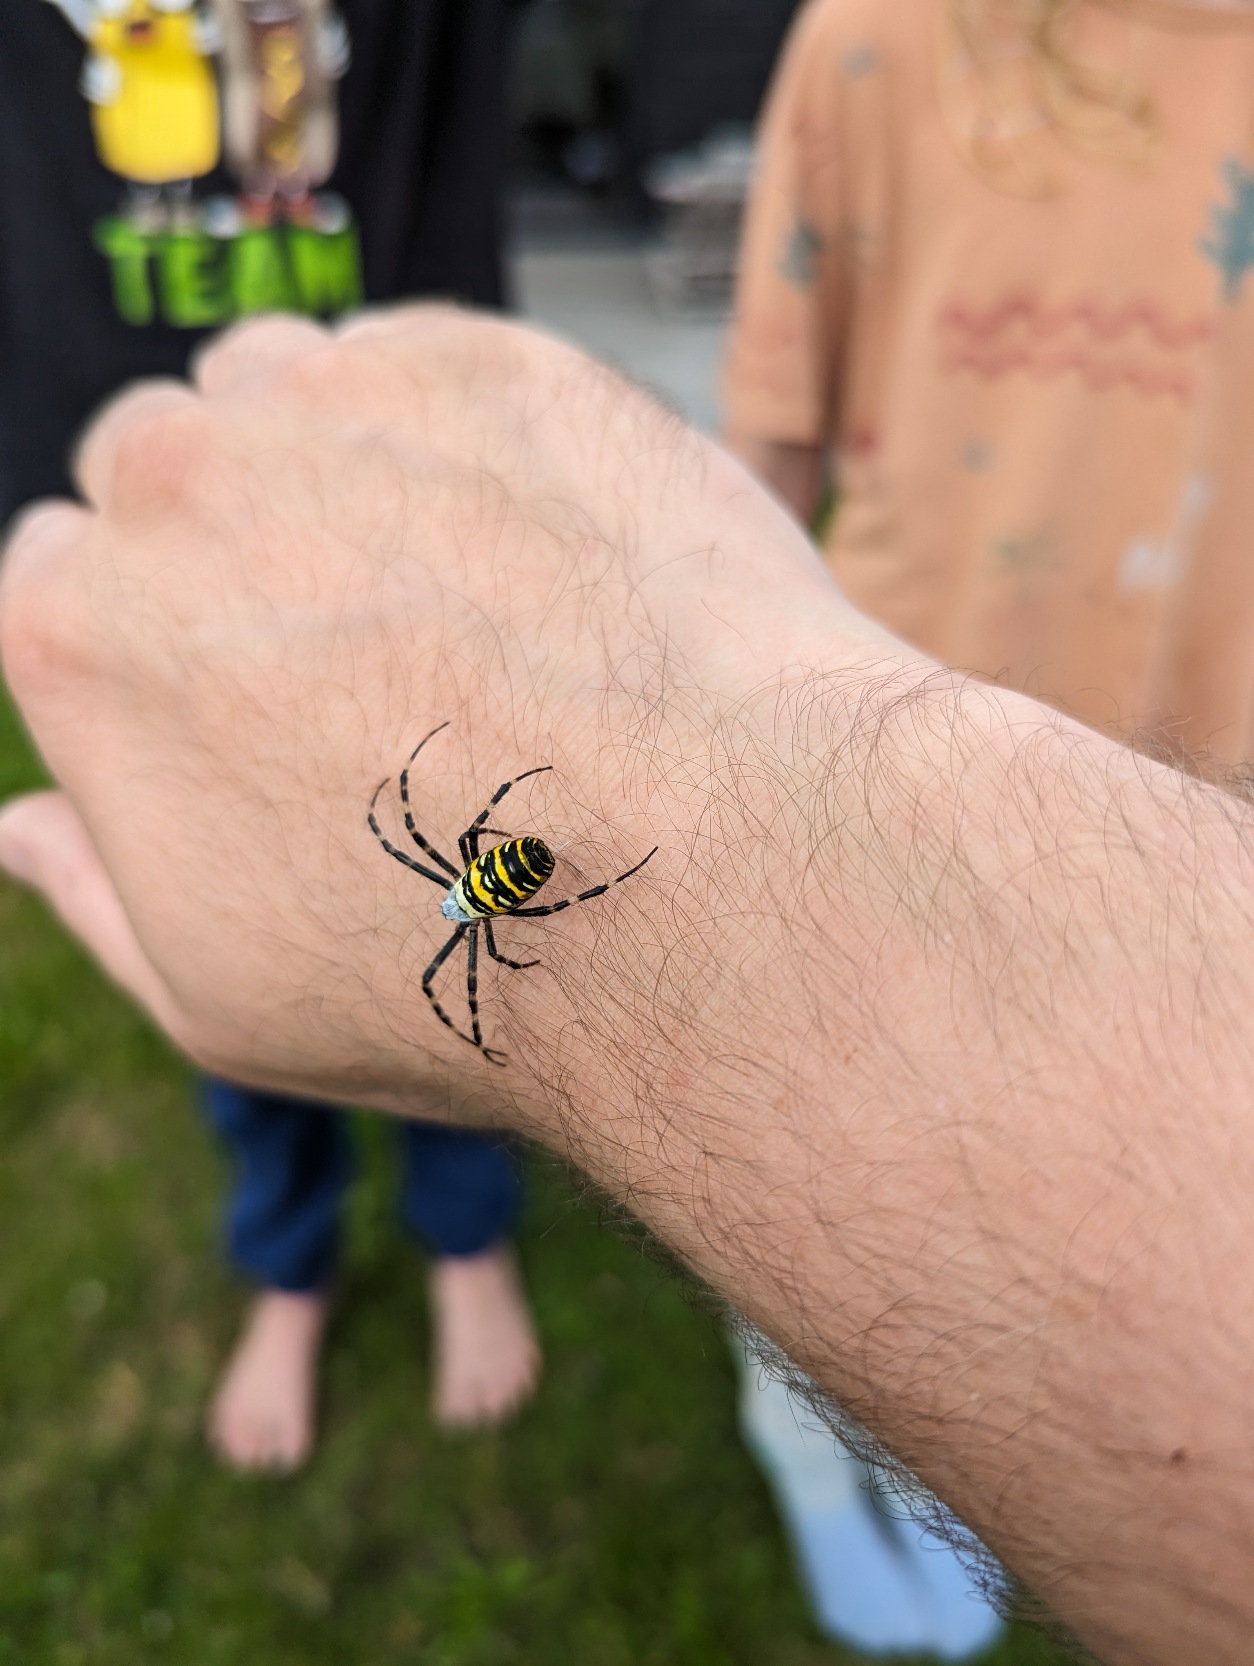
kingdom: Animalia
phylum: Arthropoda
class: Arachnida
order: Araneae
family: Araneidae
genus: Argiope
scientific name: Argiope bruennichi
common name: Hvepseedderkop
